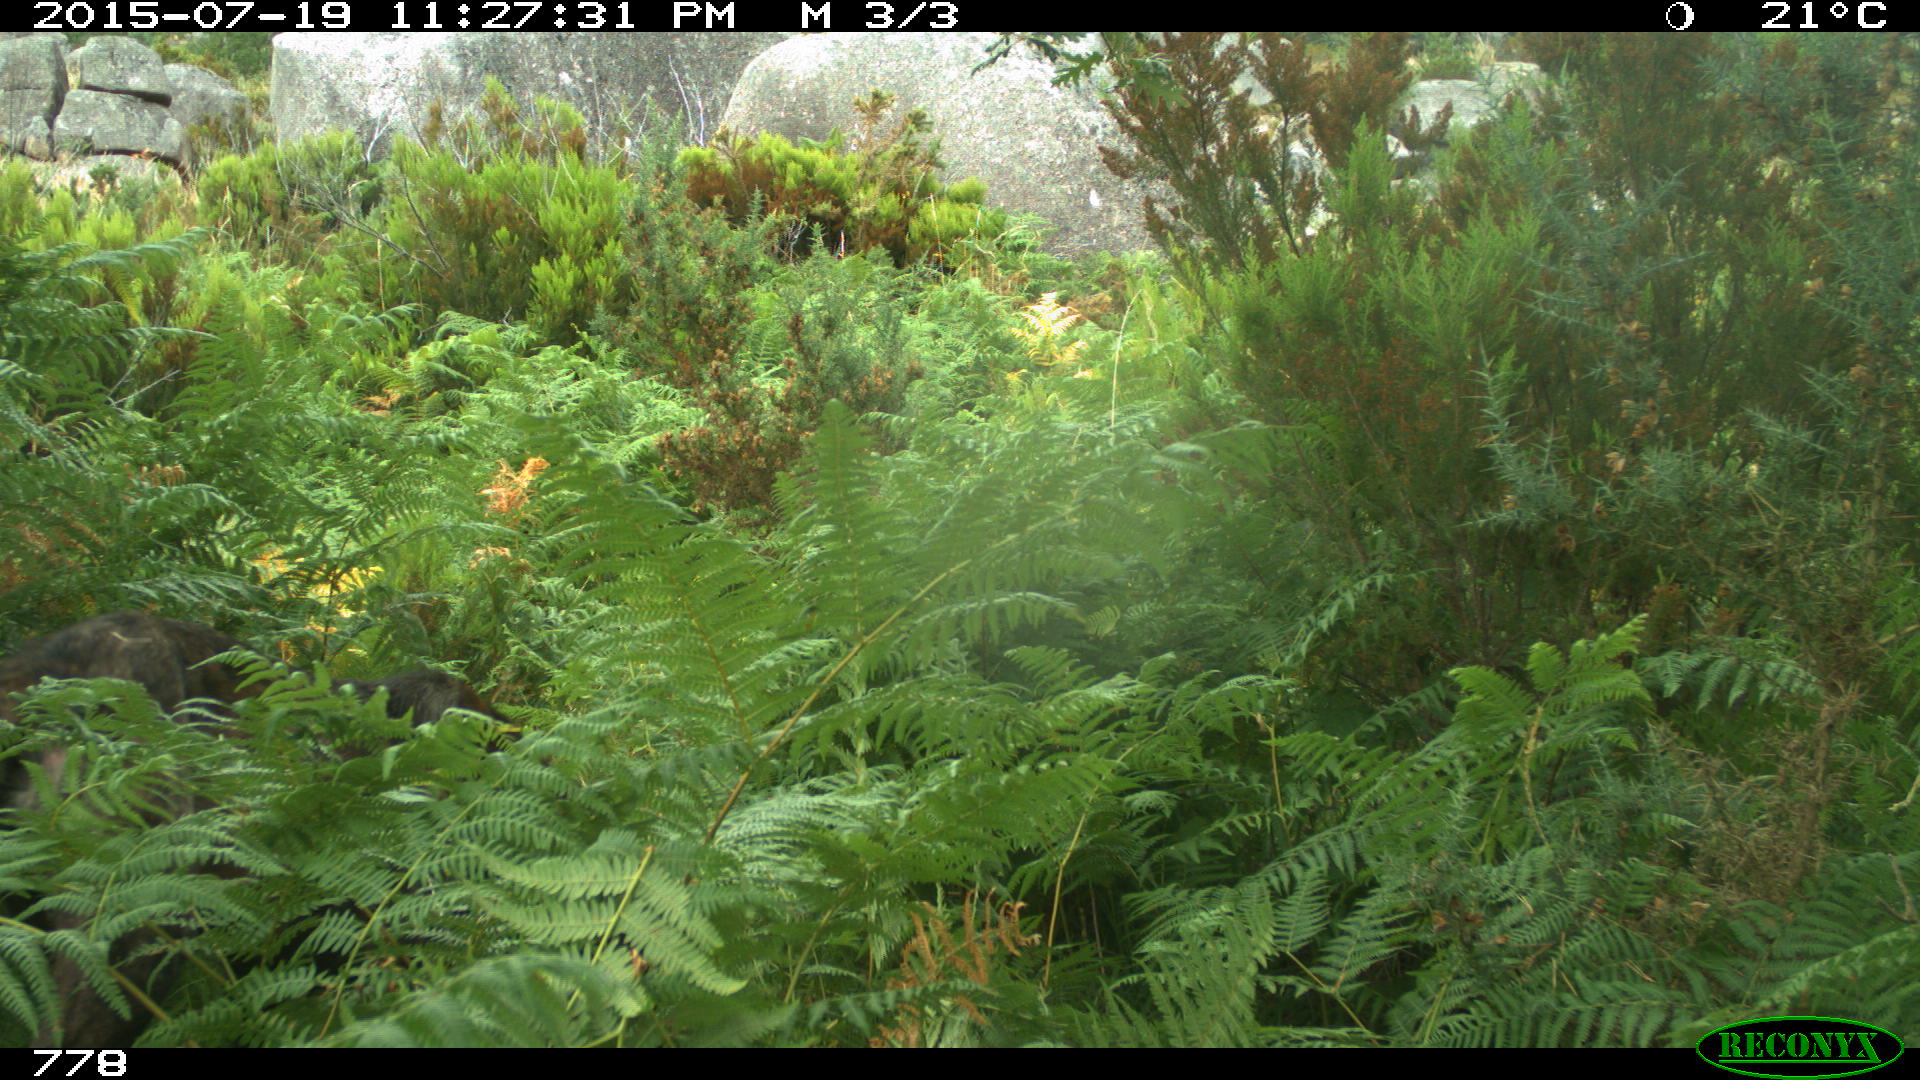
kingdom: Animalia
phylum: Chordata
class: Mammalia
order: Carnivora
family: Canidae
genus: Canis
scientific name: Canis lupus
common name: Gray wolf
